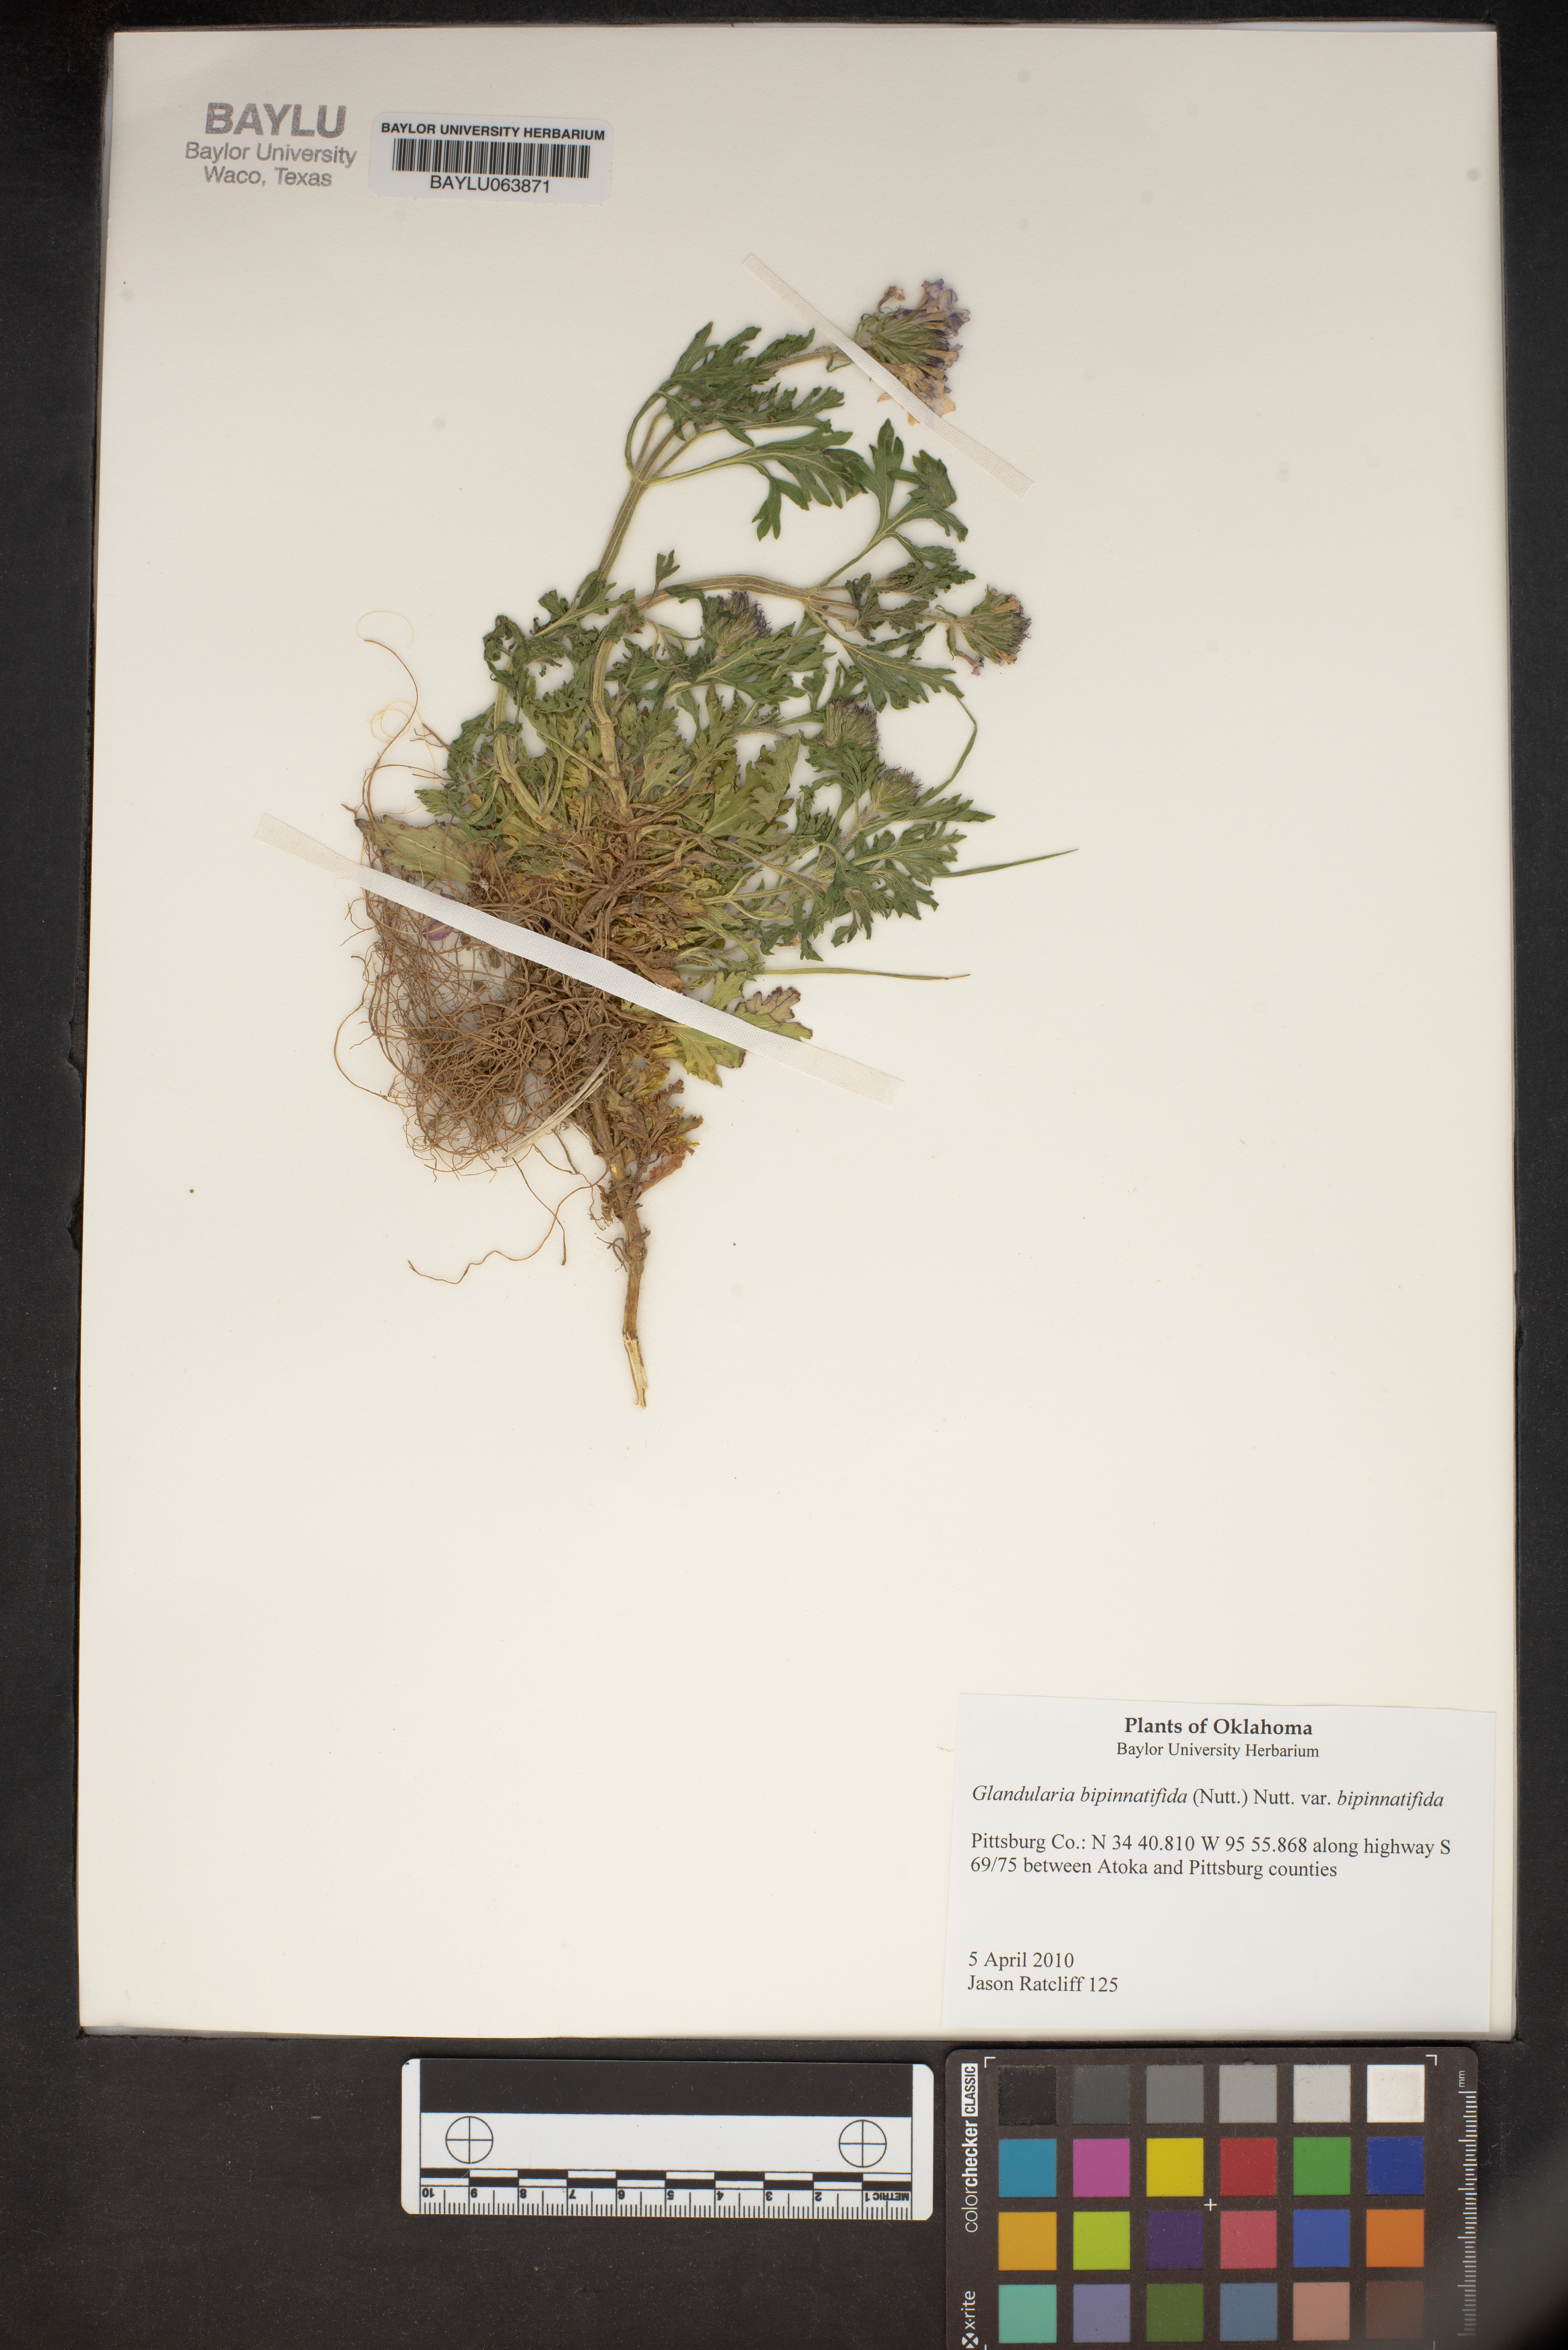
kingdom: Plantae
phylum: Tracheophyta
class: Magnoliopsida
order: Lamiales
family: Verbenaceae
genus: Verbena
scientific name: Verbena bipinnatifida
